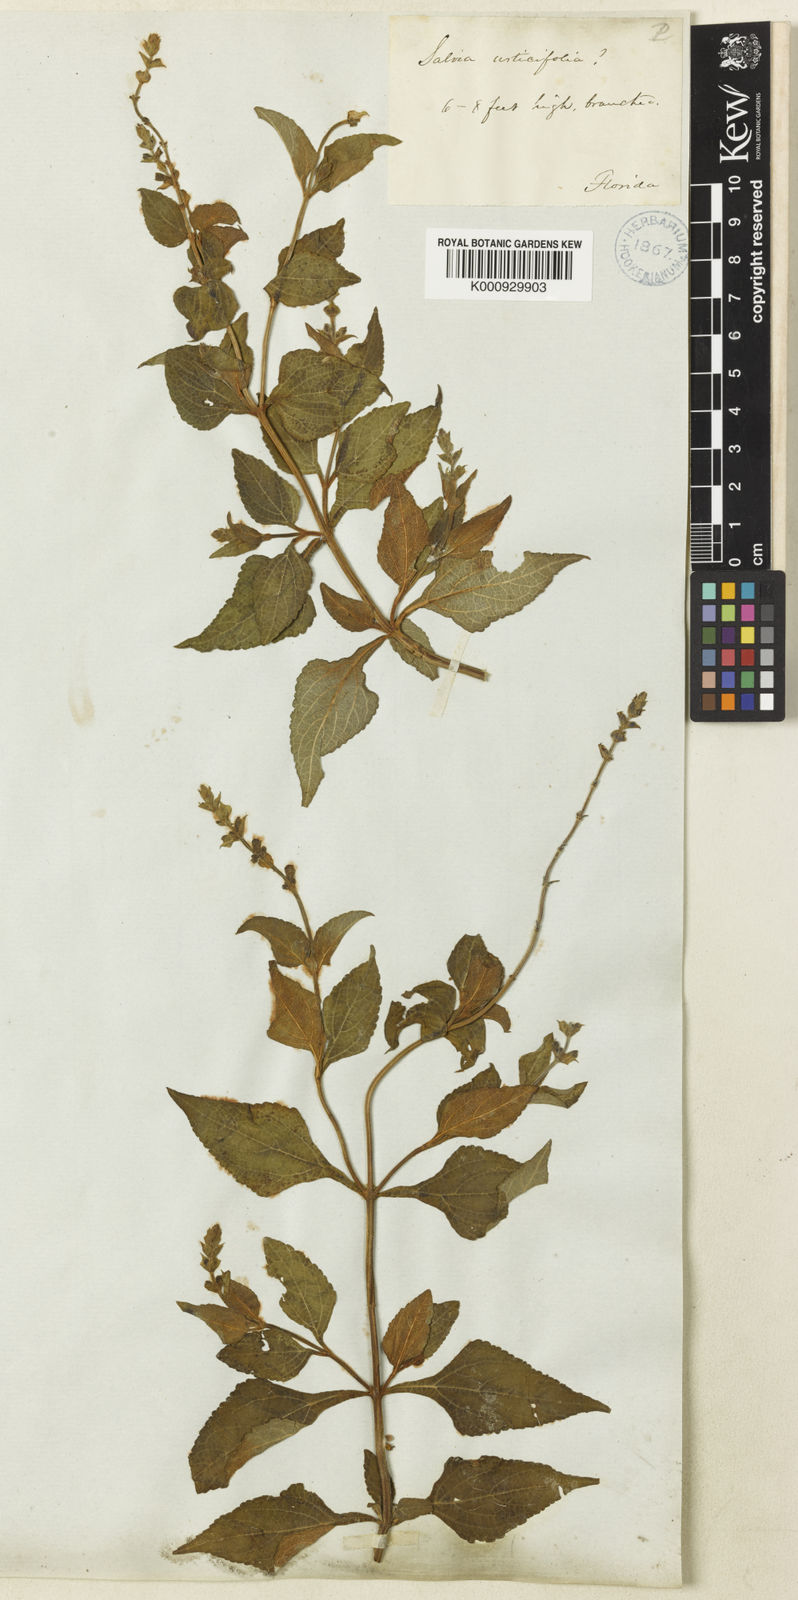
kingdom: Plantae
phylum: Tracheophyta
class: Magnoliopsida
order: Lamiales
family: Lamiaceae
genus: Salvia
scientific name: Salvia urticifolia
